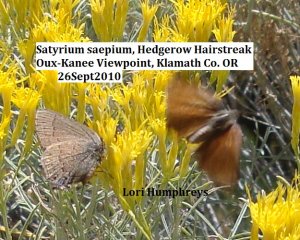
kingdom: Animalia
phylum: Arthropoda
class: Insecta
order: Lepidoptera
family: Lycaenidae
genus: Strymon
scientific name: Strymon saepium
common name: Hedgerow Hairstreak
